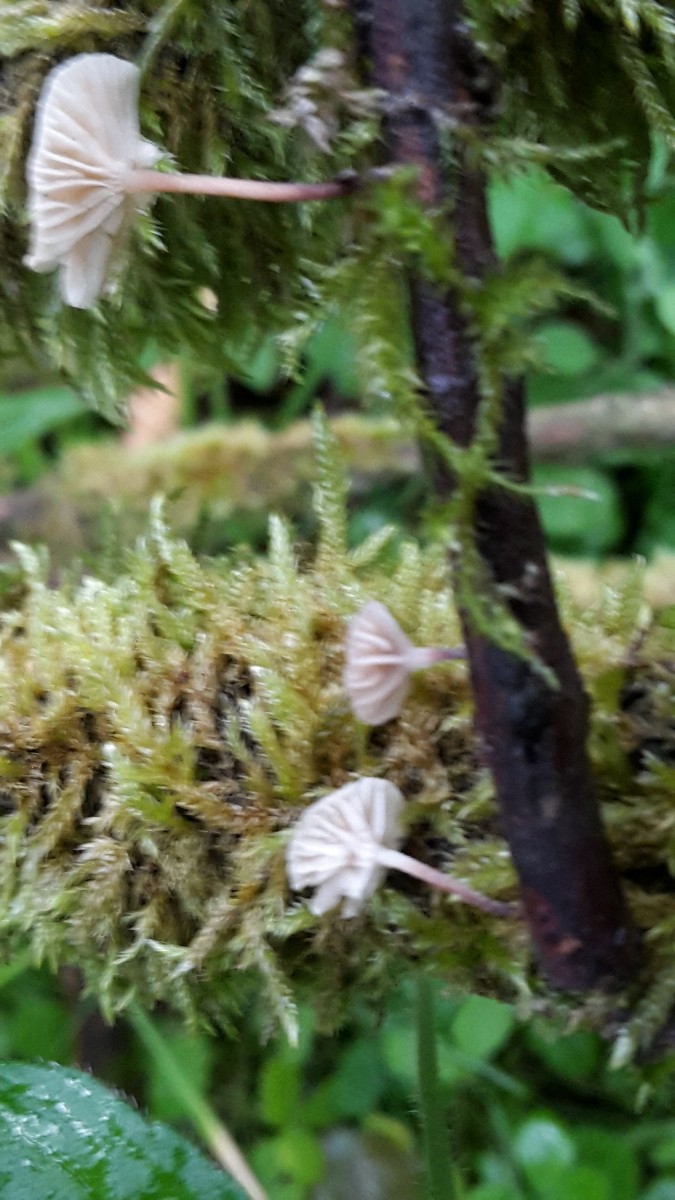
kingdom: Fungi
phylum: Basidiomycota
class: Agaricomycetes
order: Agaricales
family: Omphalotaceae
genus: Collybiopsis
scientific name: Collybiopsis ramealis
